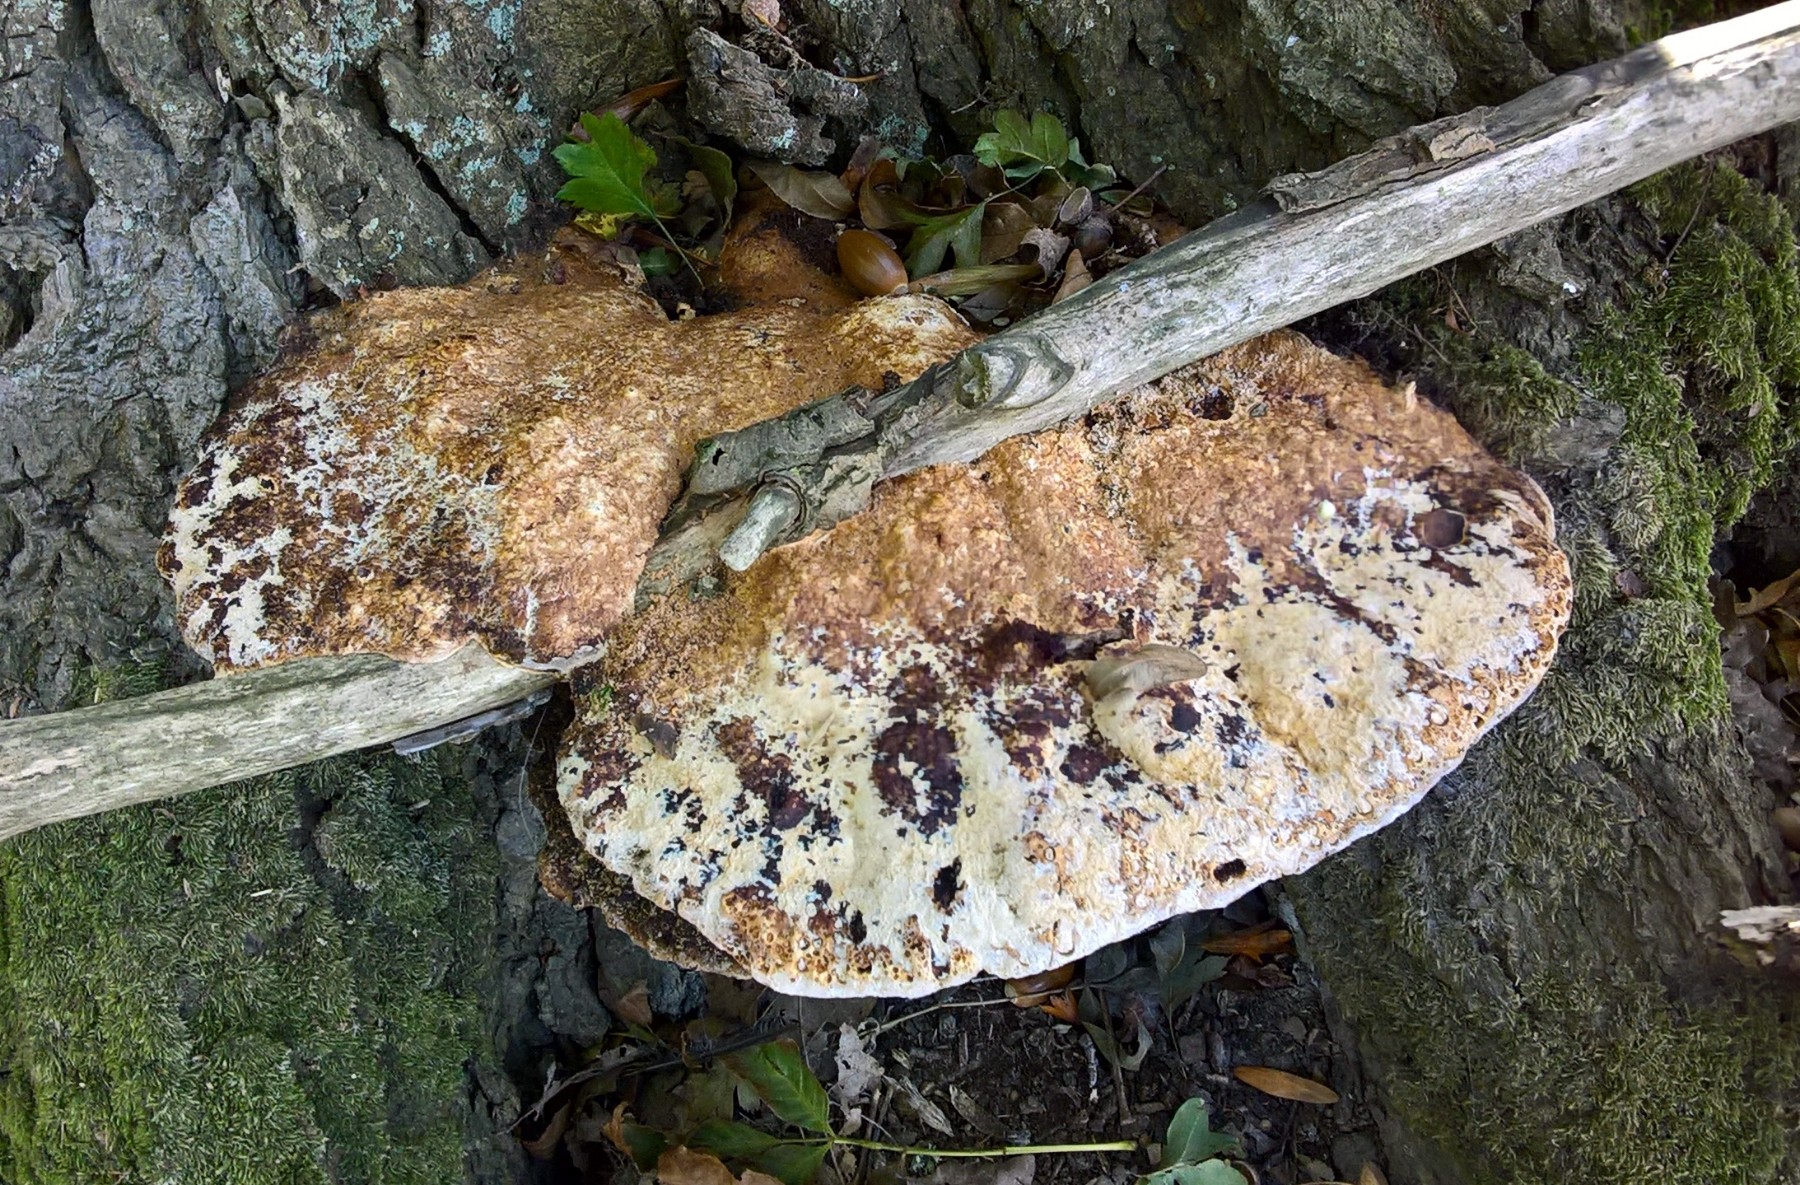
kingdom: Fungi
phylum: Basidiomycota
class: Agaricomycetes
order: Hymenochaetales
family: Hymenochaetaceae
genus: Pseudoinonotus
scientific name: Pseudoinonotus dryadeus
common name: ege-spejlporesvamp
